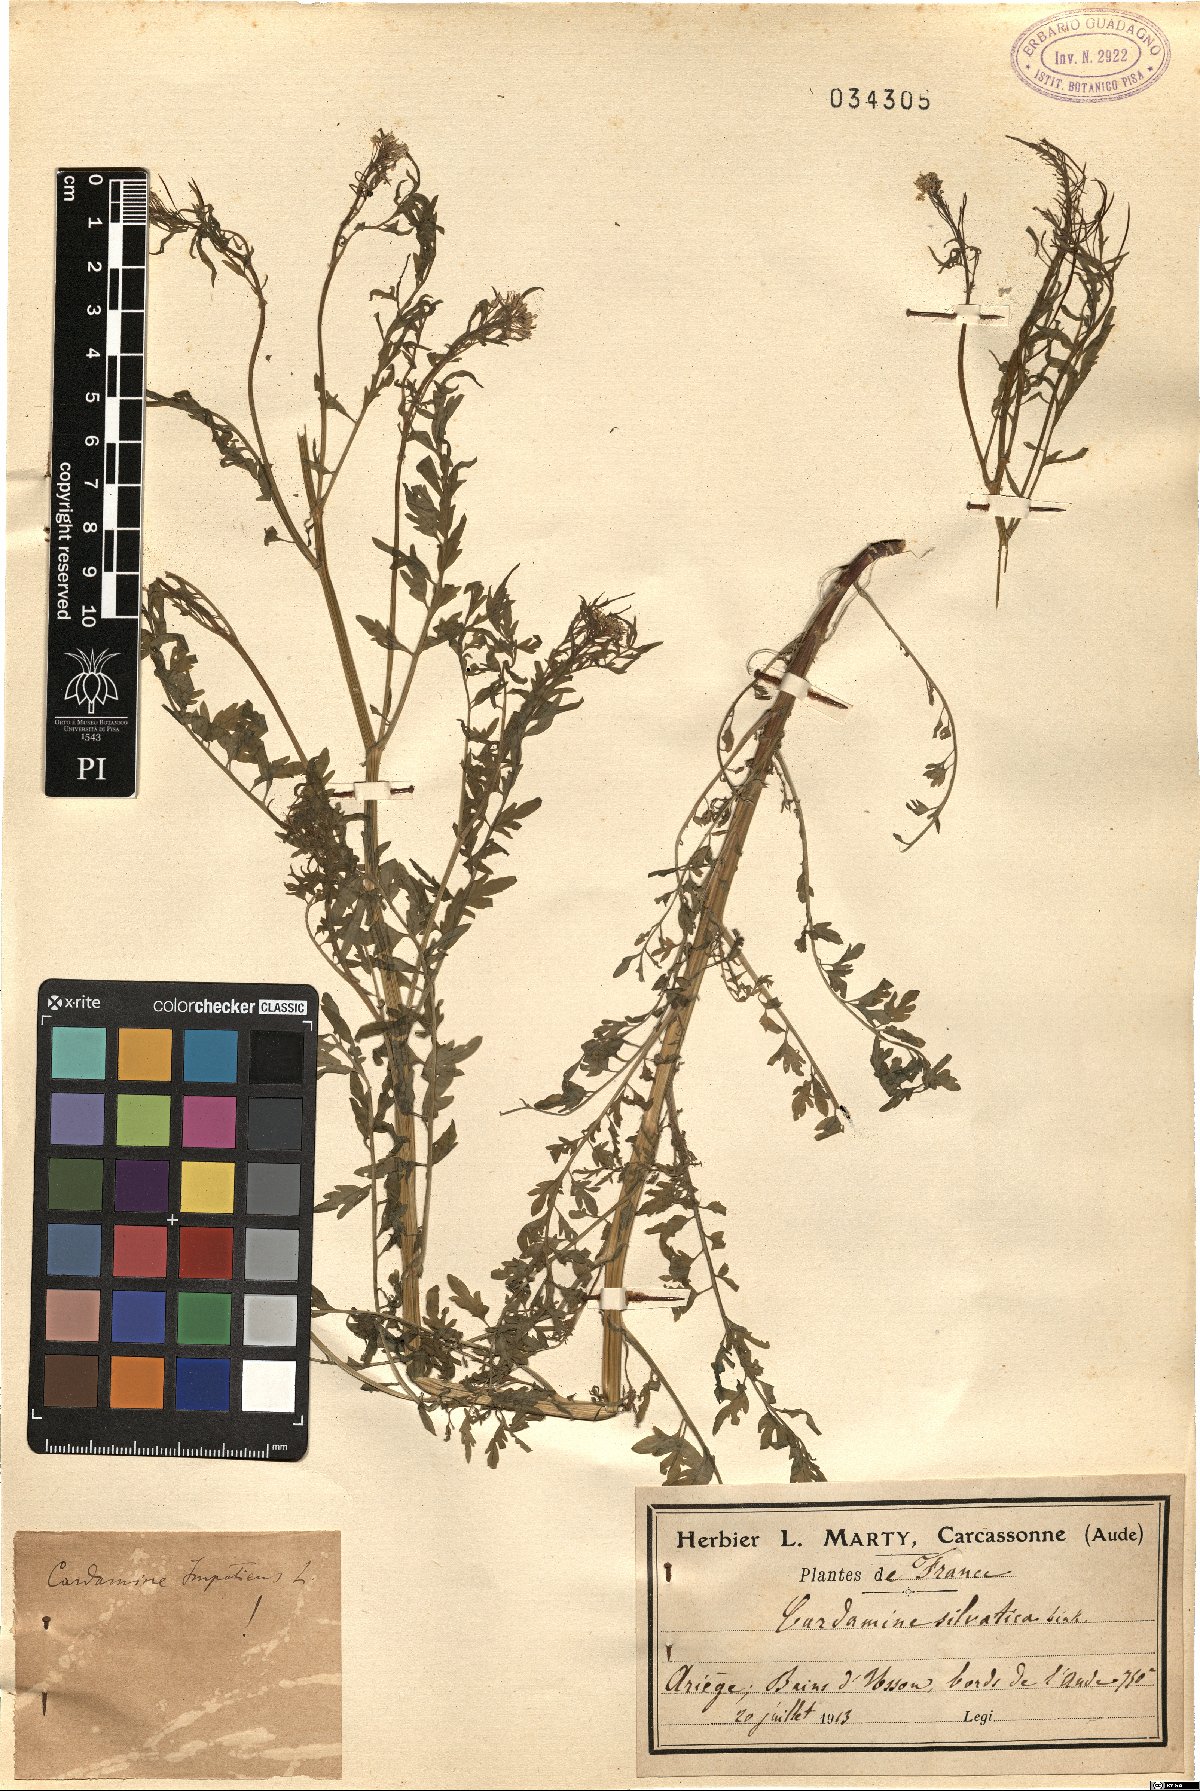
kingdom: Plantae
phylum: Tracheophyta
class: Magnoliopsida
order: Brassicales
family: Brassicaceae
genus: Cardamine
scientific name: Cardamine impatiens
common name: Narrow-leaved bitter-cress
